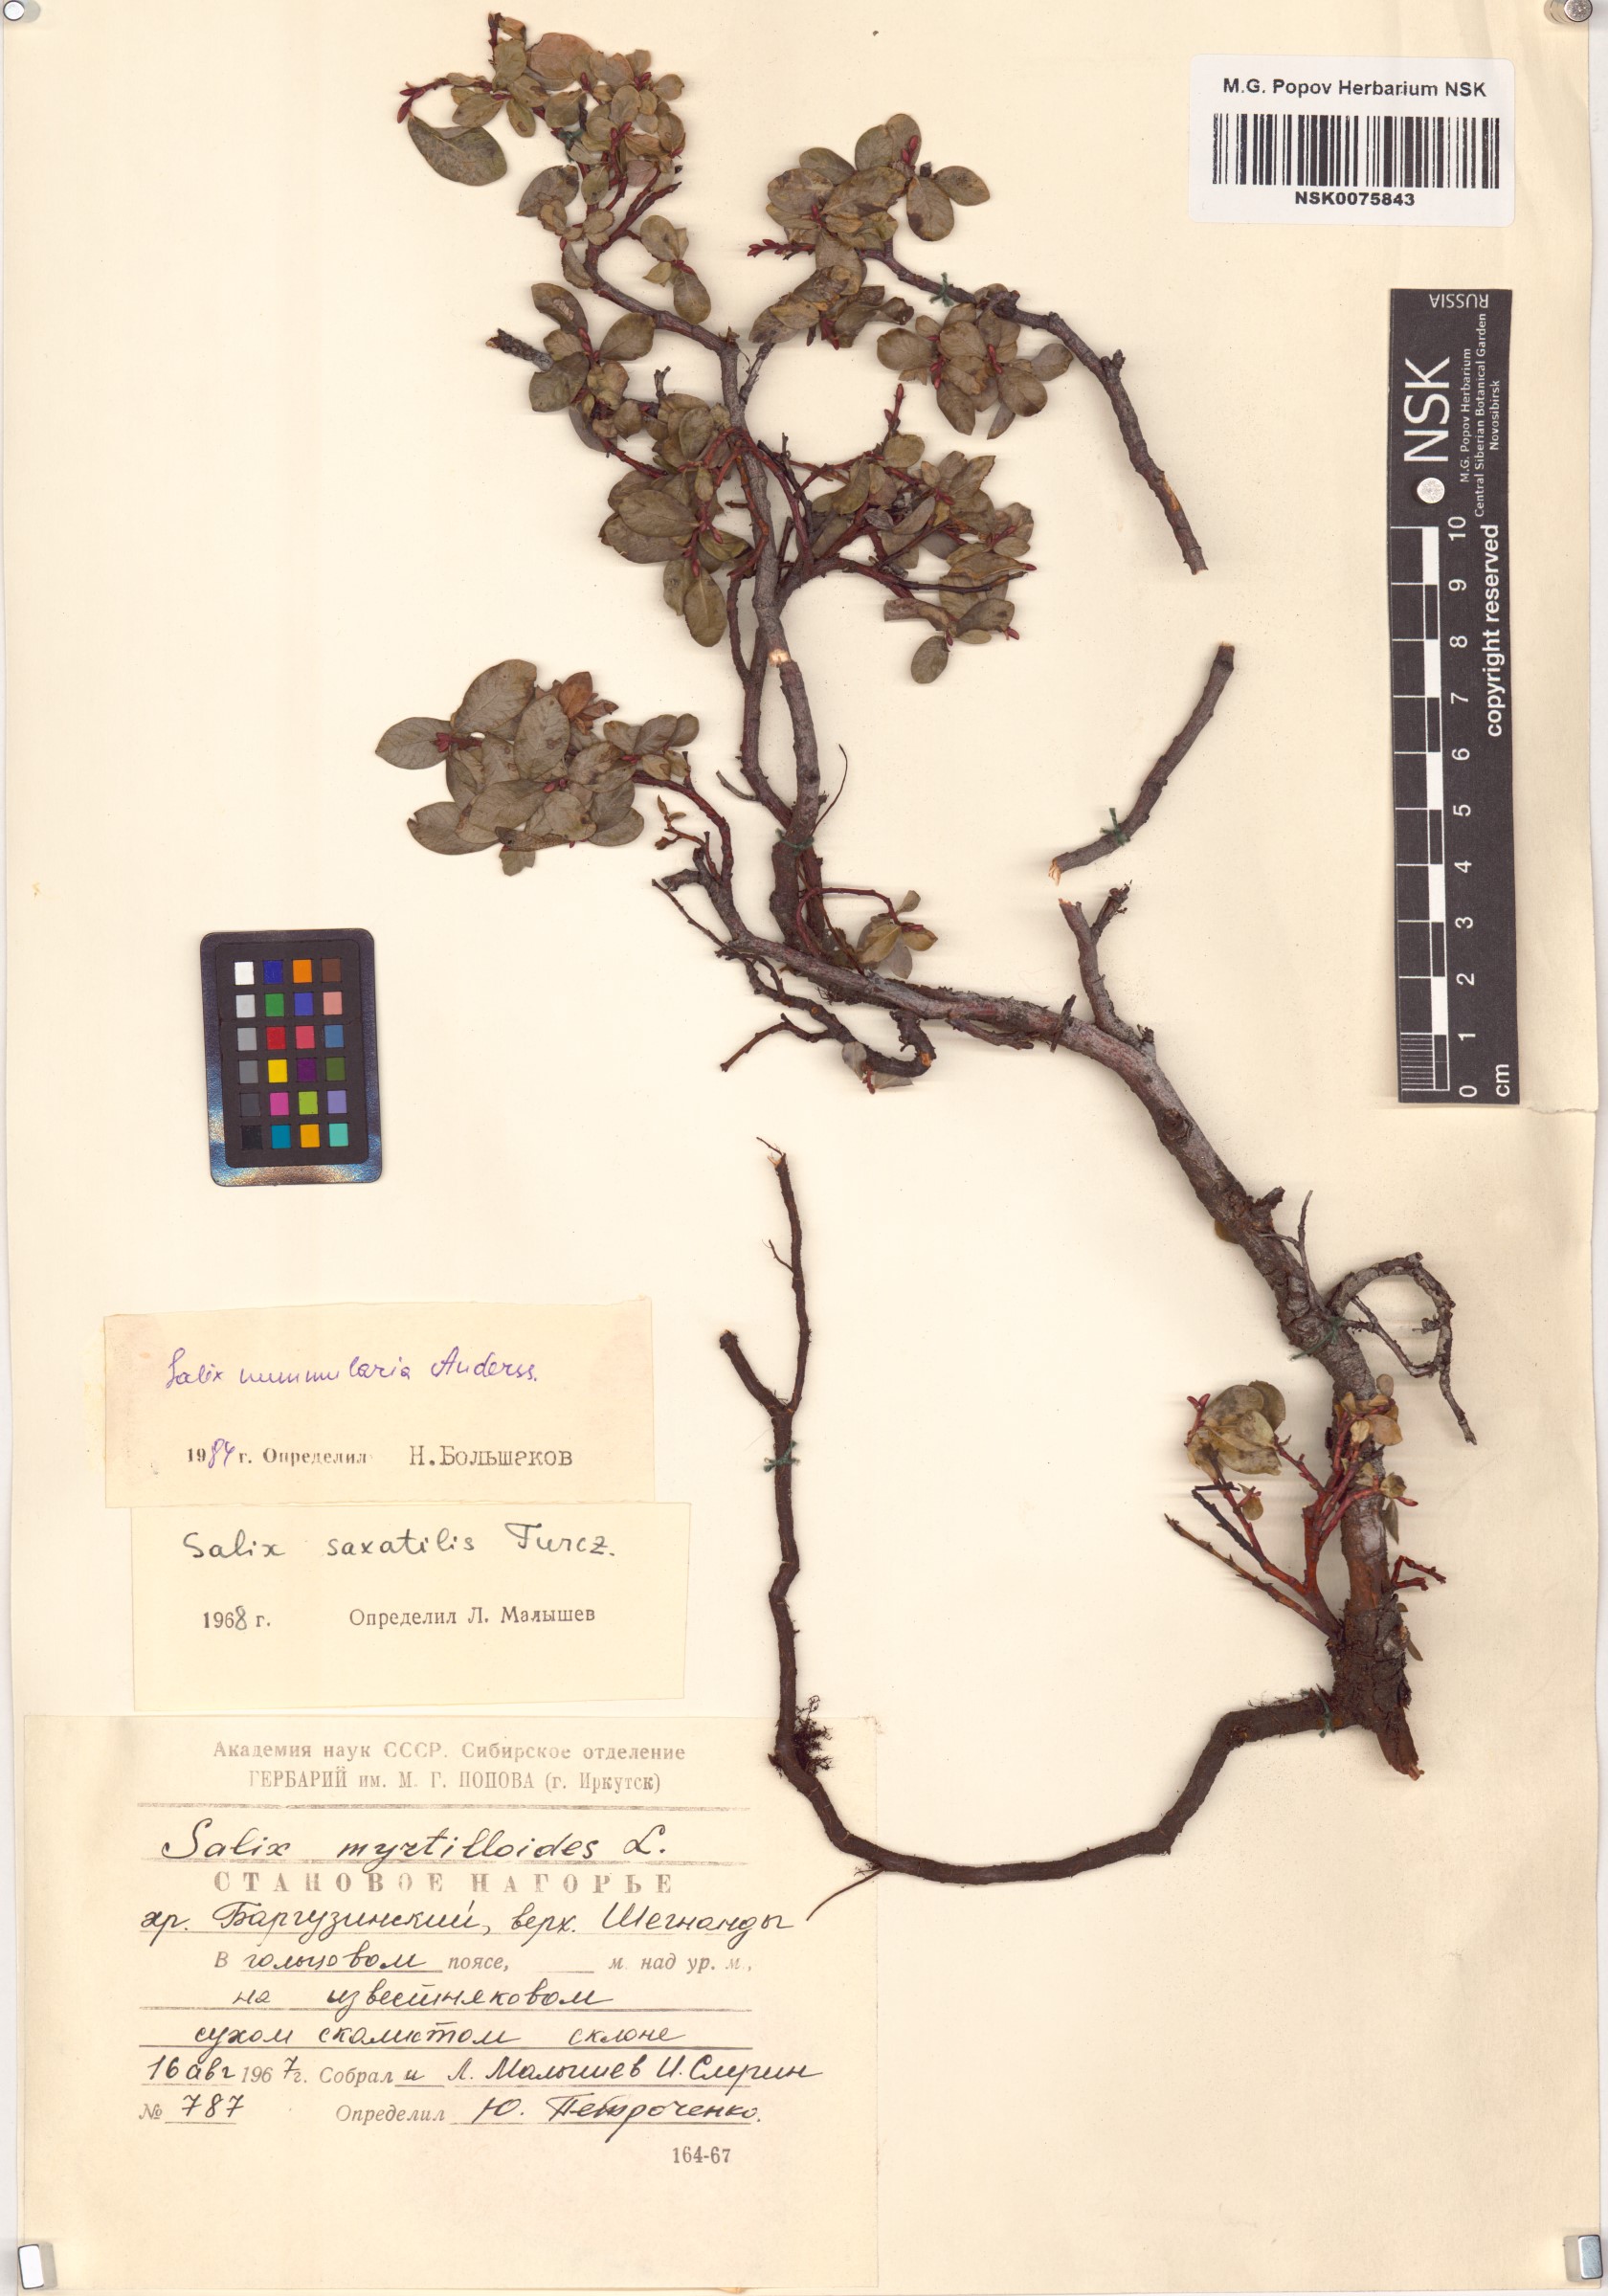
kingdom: Plantae
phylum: Tracheophyta
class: Magnoliopsida
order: Malpighiales
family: Salicaceae
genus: Salix
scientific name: Salix nummularia
